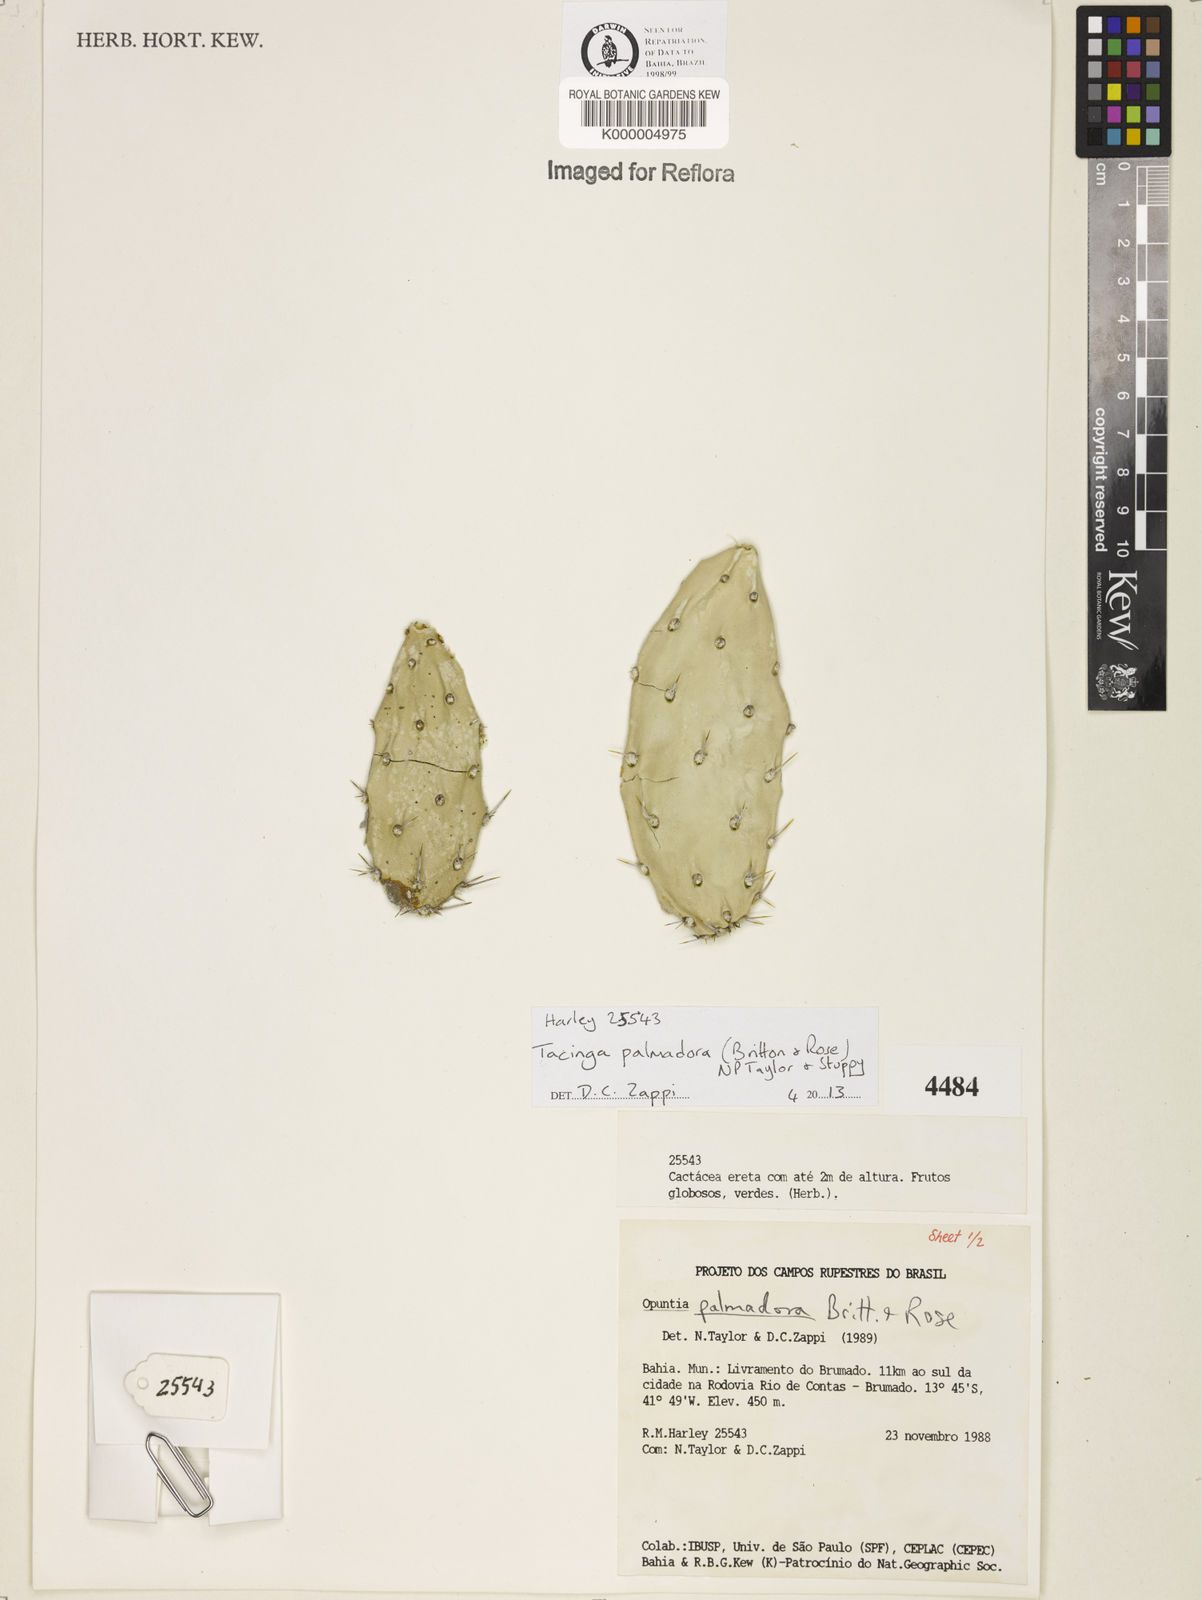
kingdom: Plantae
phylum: Tracheophyta
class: Magnoliopsida
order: Caryophyllales
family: Cactaceae
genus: Tacinga
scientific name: Tacinga palmadora
